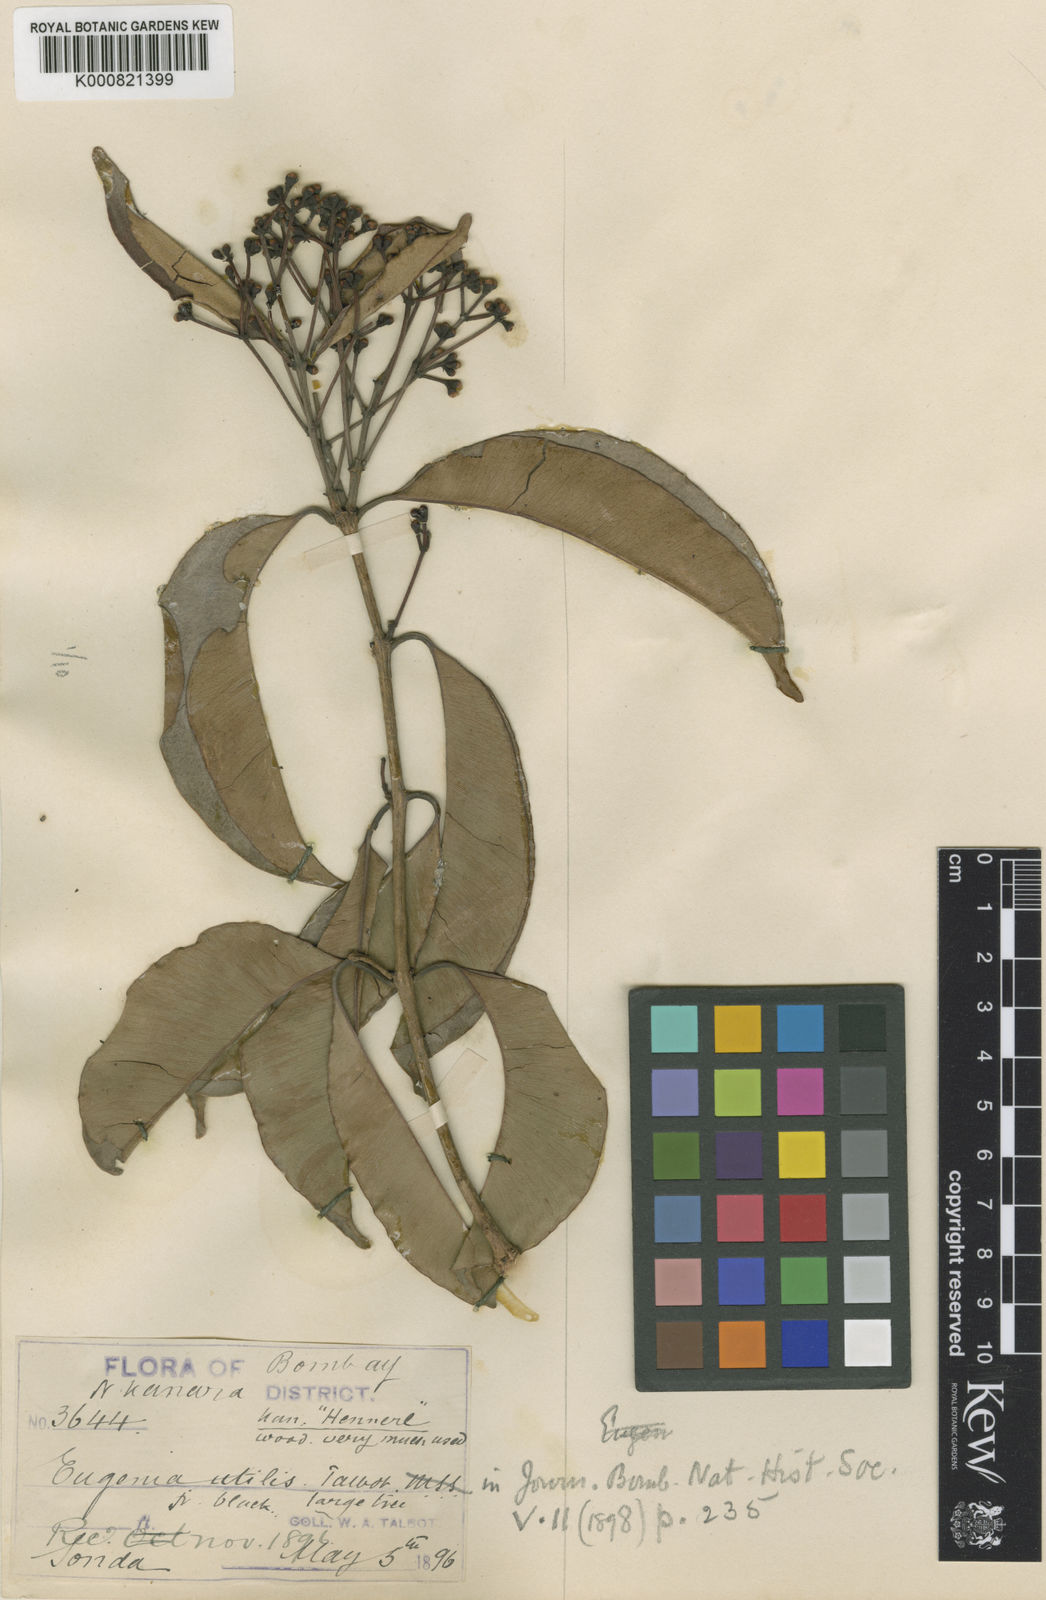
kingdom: Plantae
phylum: Tracheophyta
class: Magnoliopsida
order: Myrtales
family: Myrtaceae
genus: Syzygium
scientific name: Syzygium utilis
